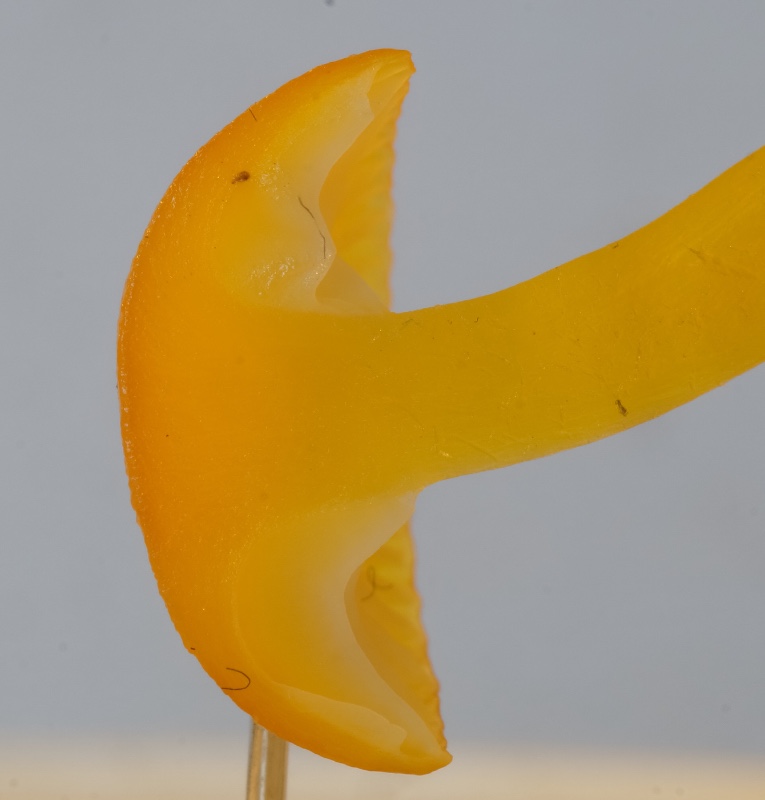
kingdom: Fungi
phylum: Basidiomycota
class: Agaricomycetes
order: Agaricales
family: Hygrophoraceae
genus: Hygrocybe
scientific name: Hygrocybe ceracea
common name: voksgul vokshat
